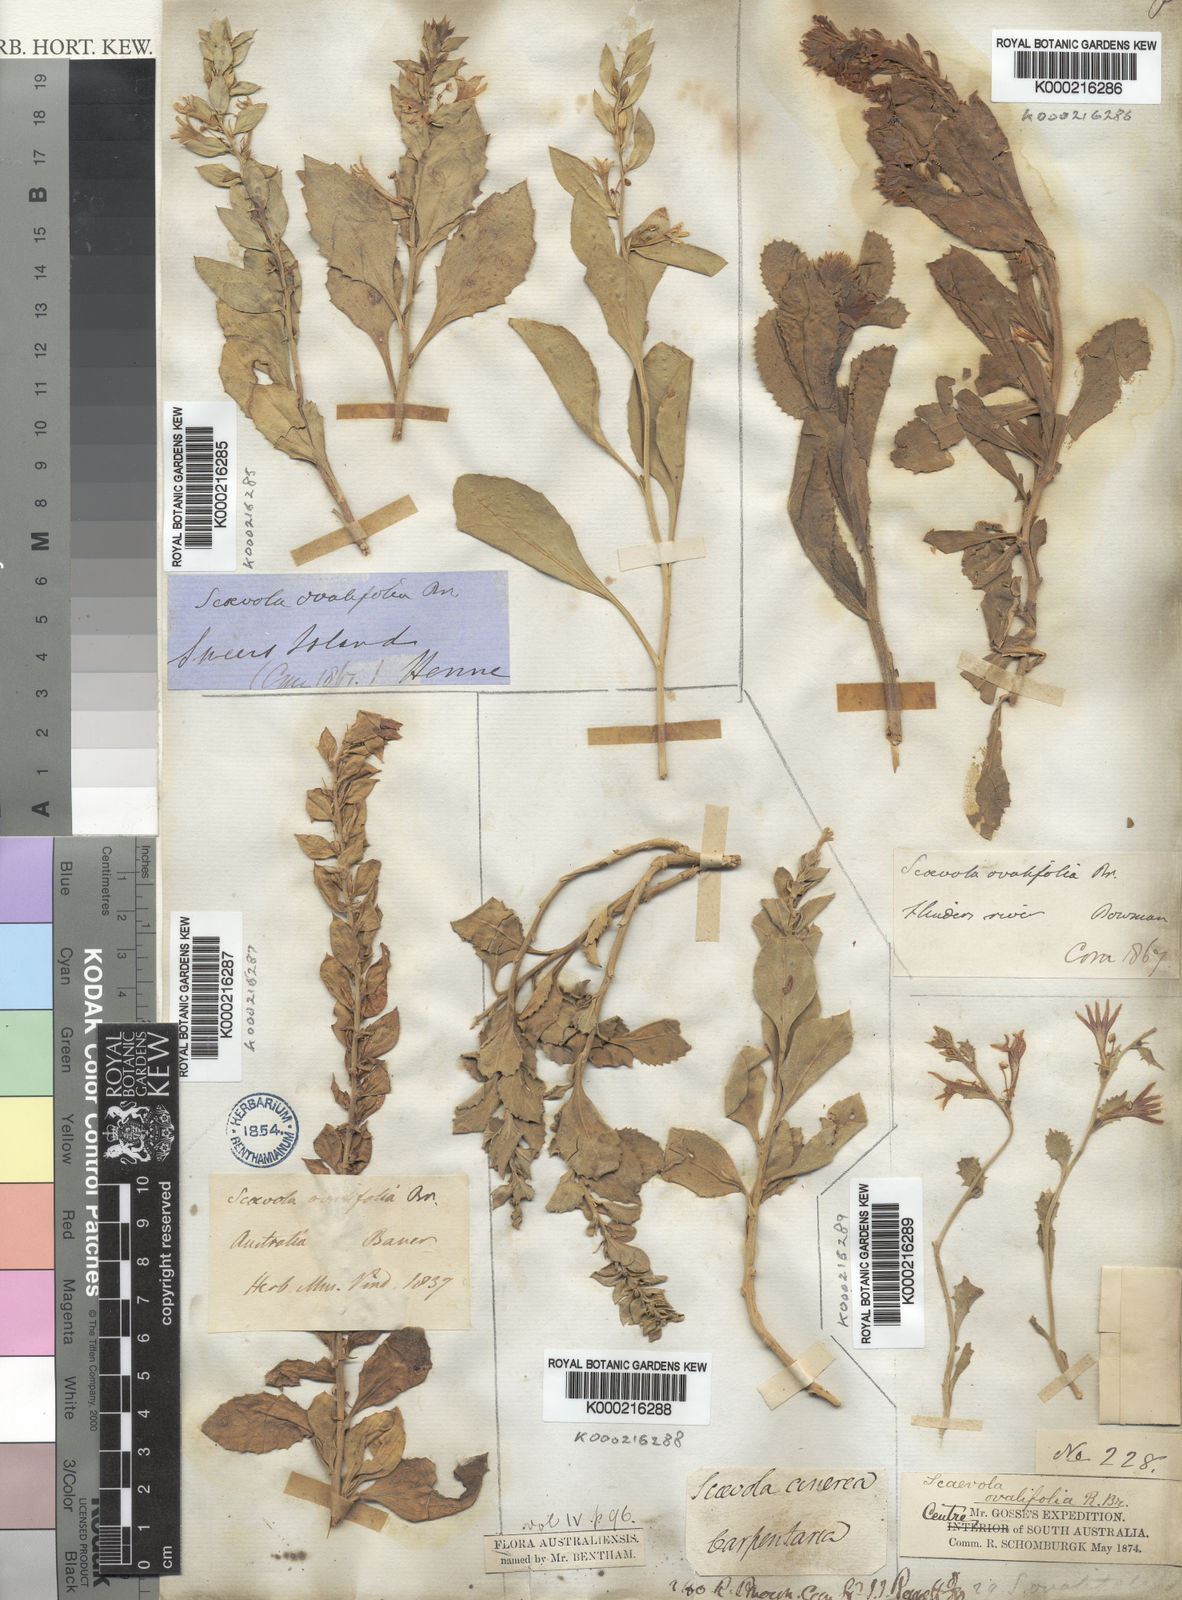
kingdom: Plantae
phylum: Tracheophyta
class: Magnoliopsida
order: Asterales
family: Goodeniaceae
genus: Scaevola
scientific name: Scaevola ovalifolia
